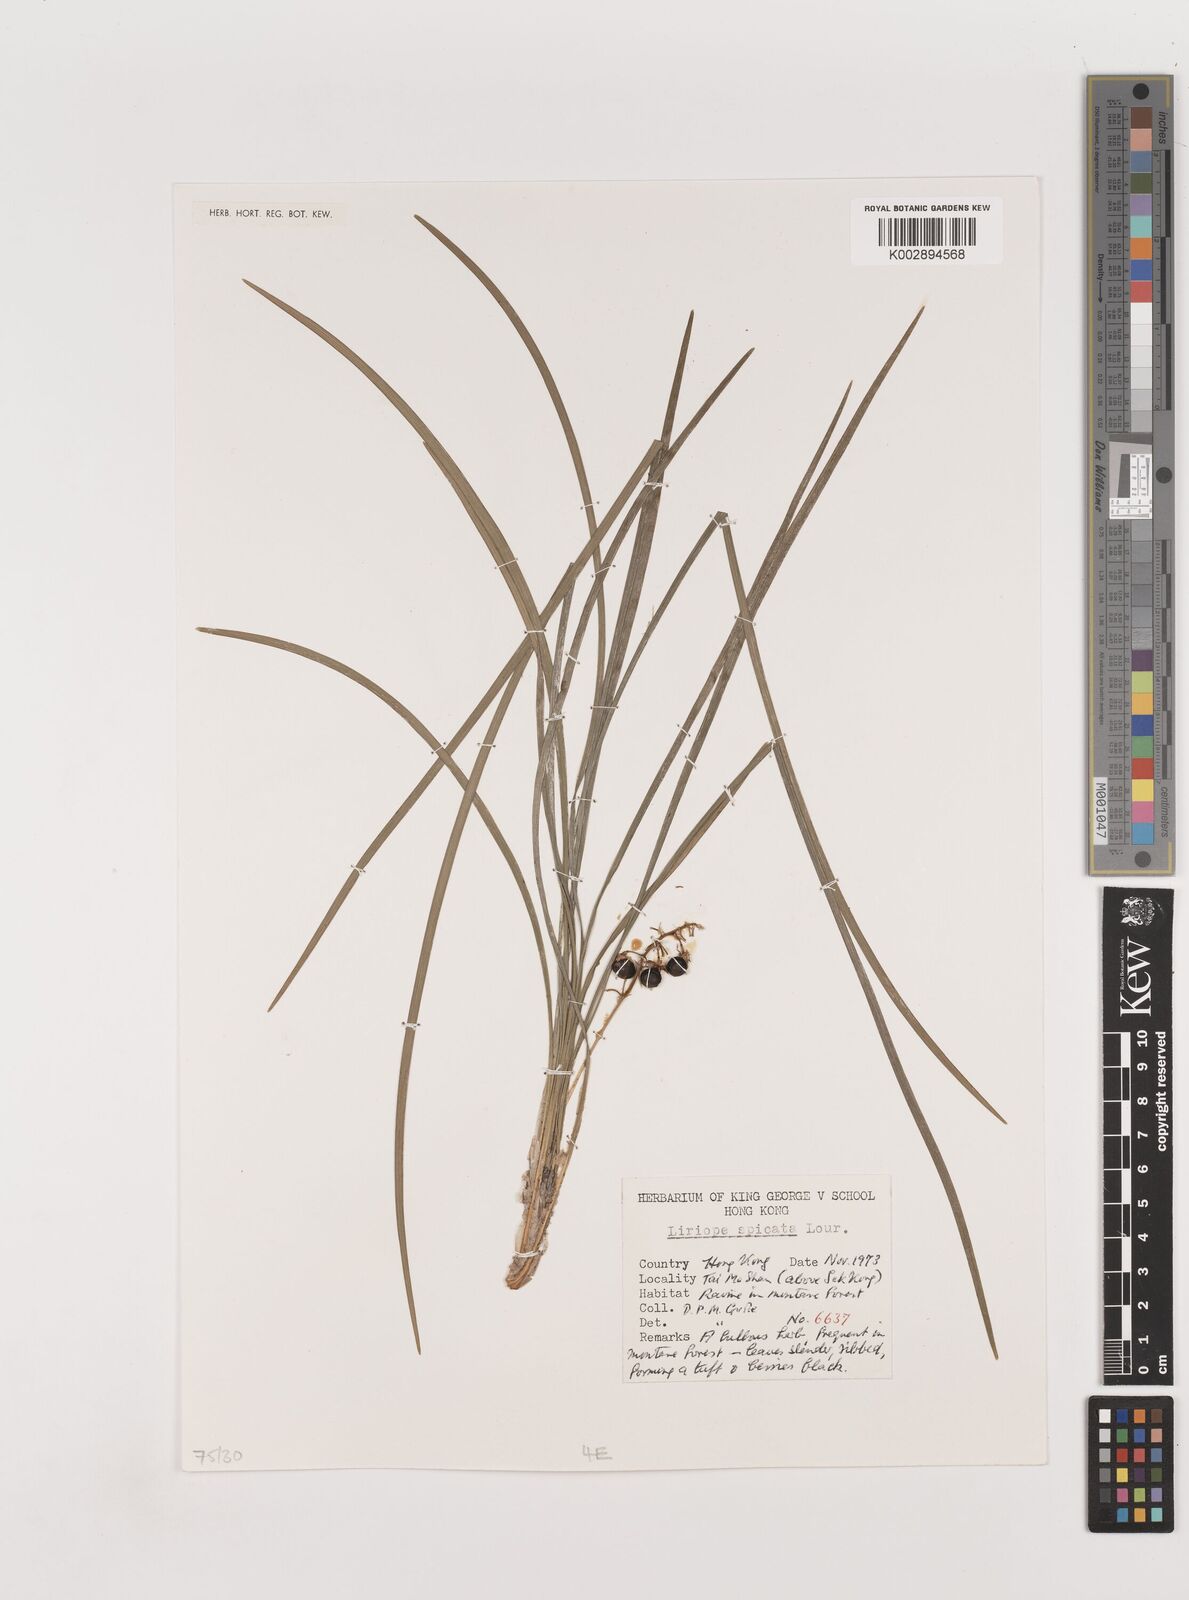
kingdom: Plantae
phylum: Tracheophyta
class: Liliopsida
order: Asparagales
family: Asparagaceae
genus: Liriope
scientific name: Liriope spicata
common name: Creeping liriope
